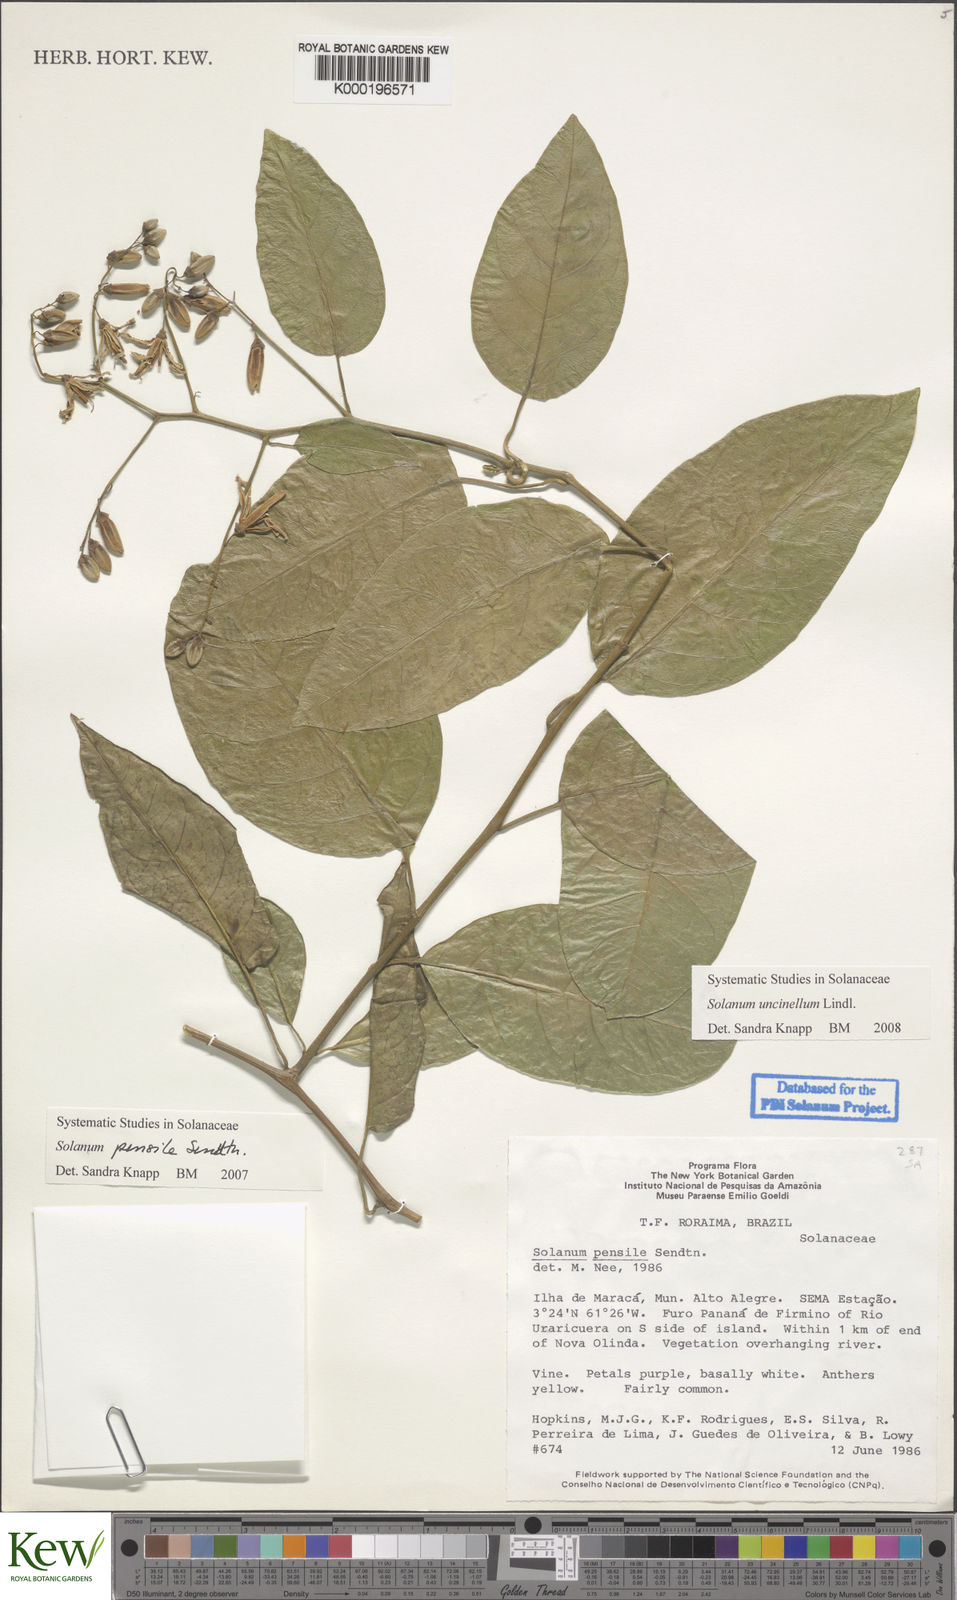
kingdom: Plantae
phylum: Tracheophyta
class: Magnoliopsida
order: Solanales
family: Solanaceae
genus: Solanum
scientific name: Solanum uncinellum
